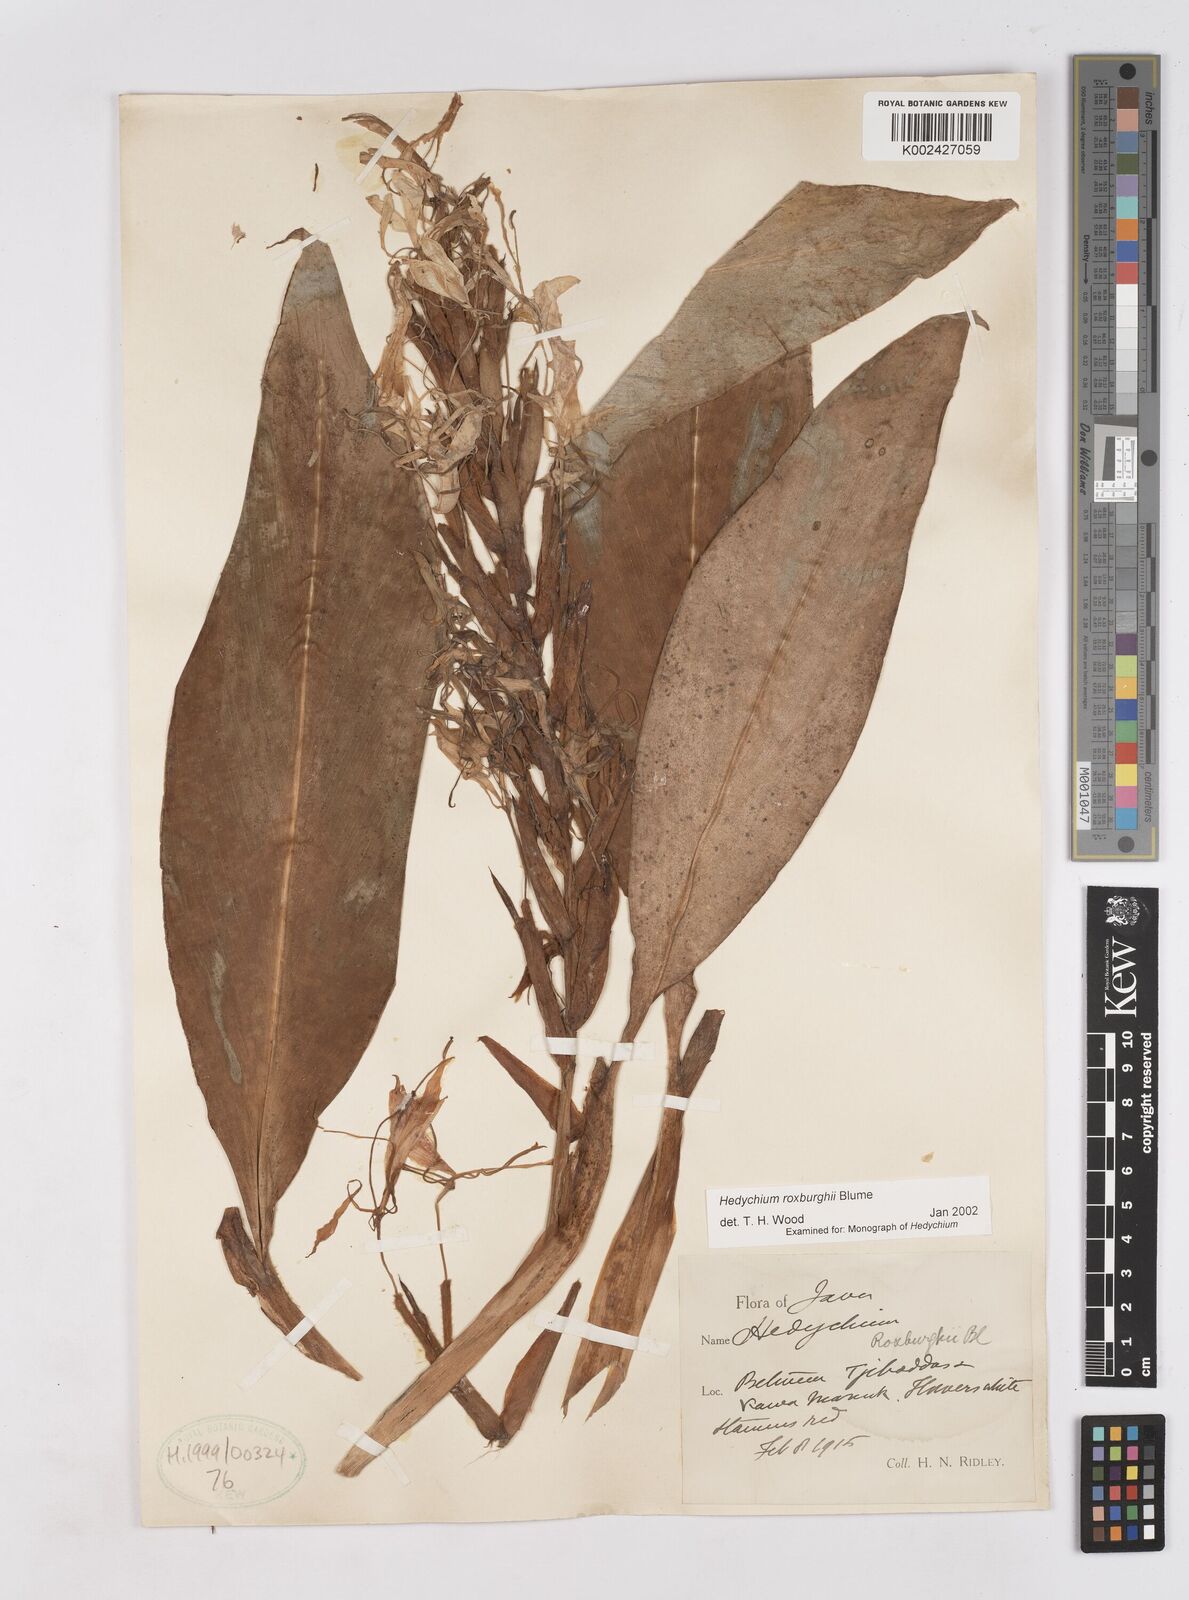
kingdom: Plantae
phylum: Tracheophyta
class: Liliopsida
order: Zingiberales
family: Zingiberaceae
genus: Hedychium
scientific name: Hedychium roxburghii
